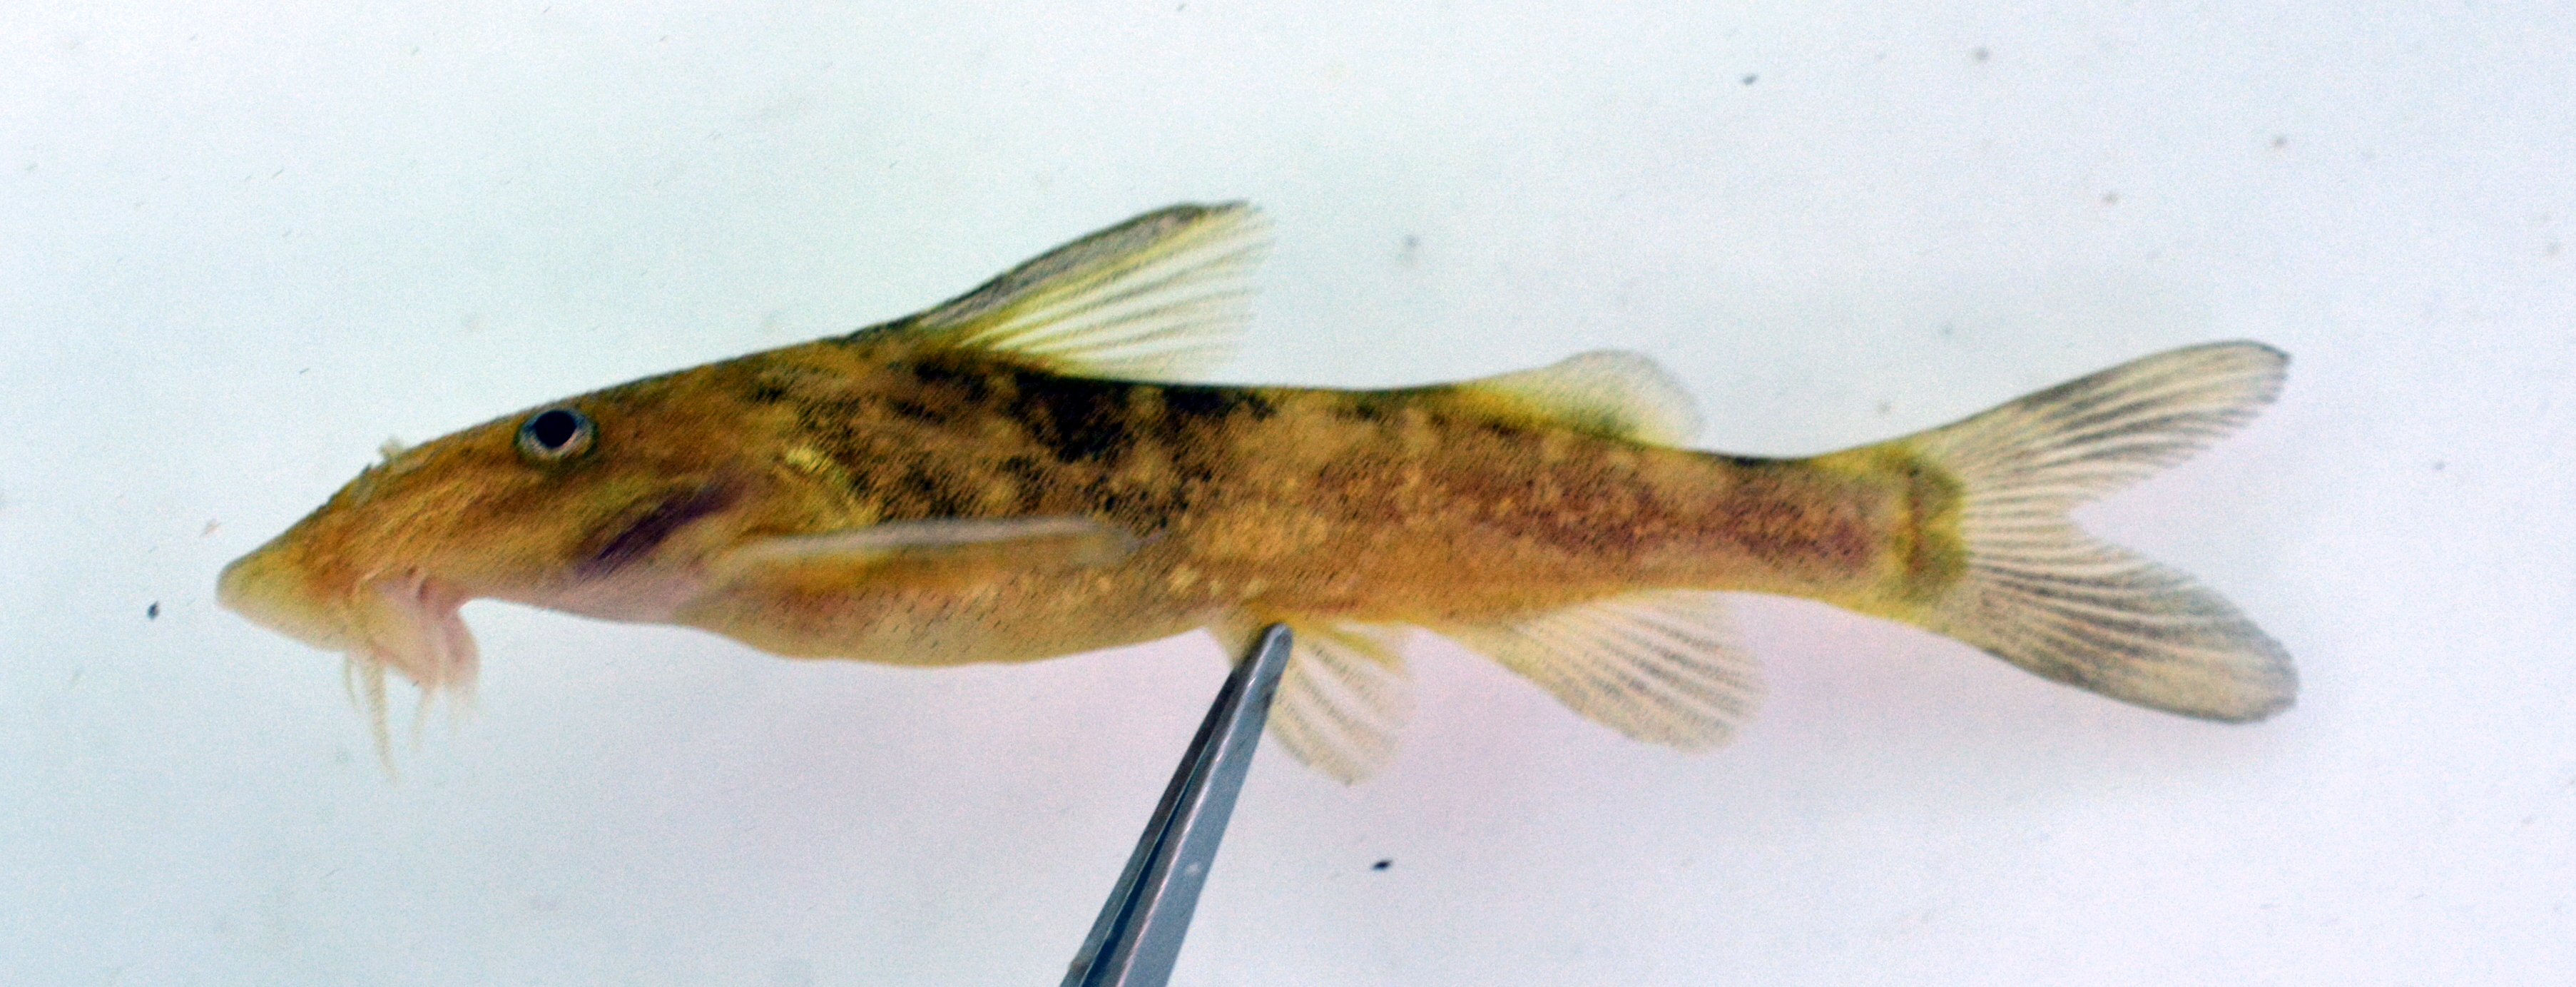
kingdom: Animalia
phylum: Chordata
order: Siluriformes
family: Mochokidae
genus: Chiloglanis
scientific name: Chiloglanis fasciatus
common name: Okavango suckermouth
